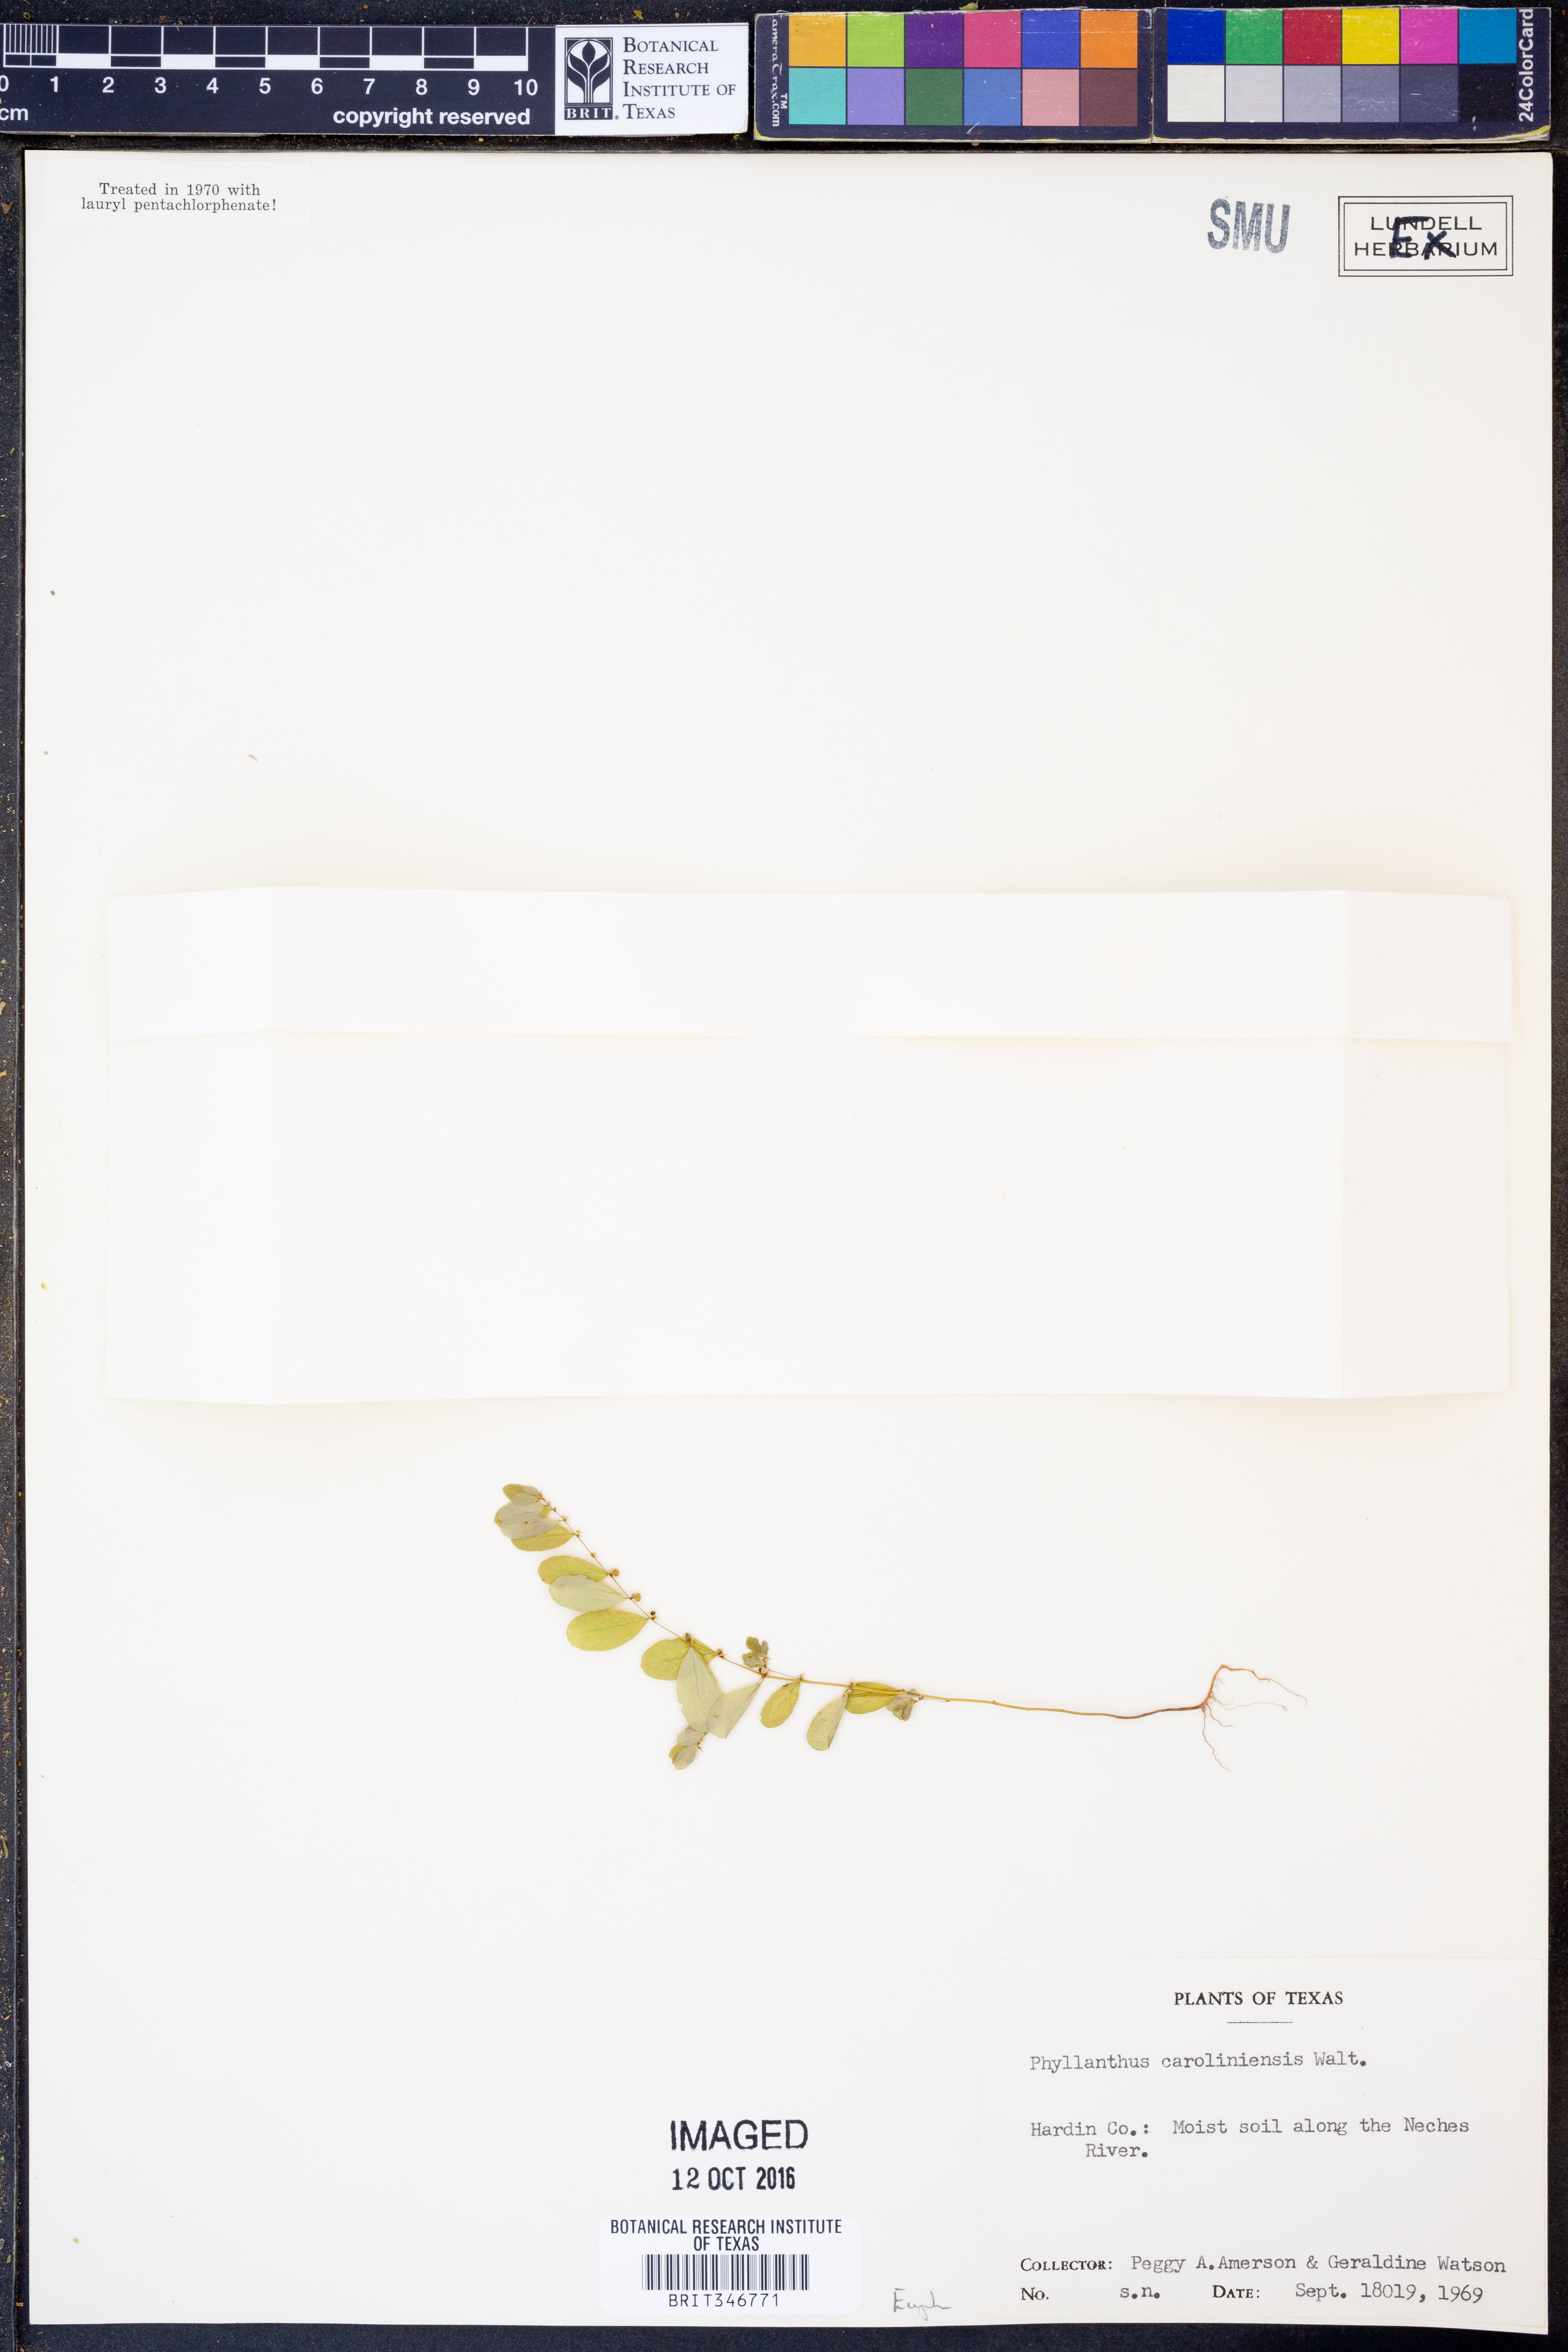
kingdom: Plantae
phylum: Tracheophyta
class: Magnoliopsida
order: Malpighiales
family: Phyllanthaceae
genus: Phyllanthus
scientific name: Phyllanthus caroliniensis
